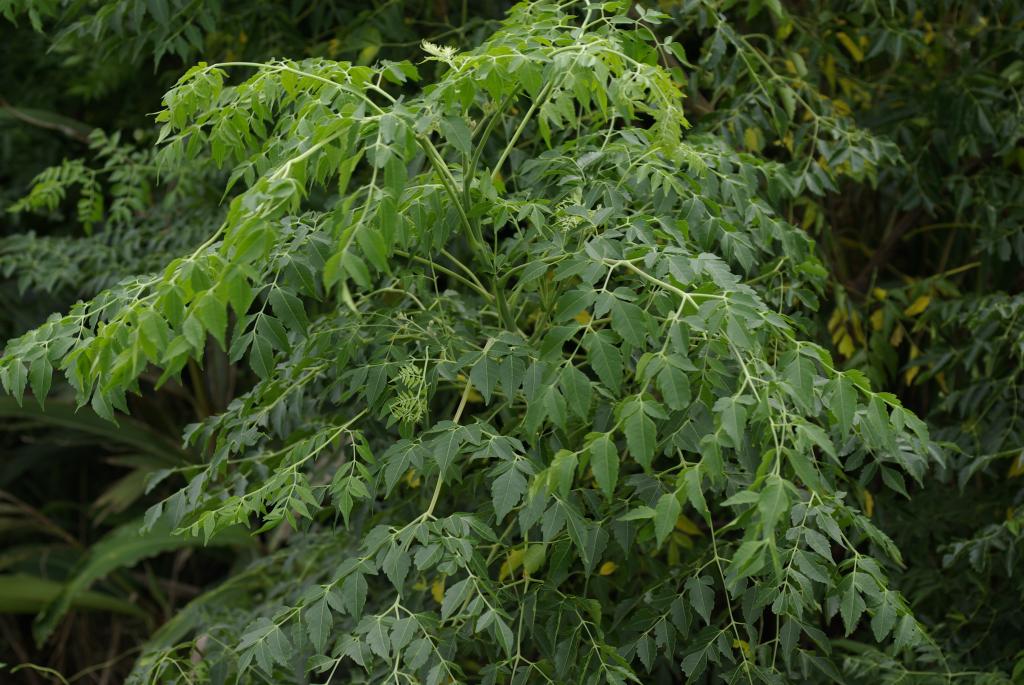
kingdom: Plantae
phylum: Tracheophyta
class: Magnoliopsida
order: Sapindales
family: Meliaceae
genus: Melia
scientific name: Melia azedarach
